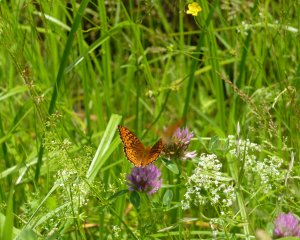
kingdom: Animalia
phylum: Arthropoda
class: Insecta
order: Lepidoptera
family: Nymphalidae
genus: Speyeria
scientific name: Speyeria atlantis
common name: Atlantis Fritillary
